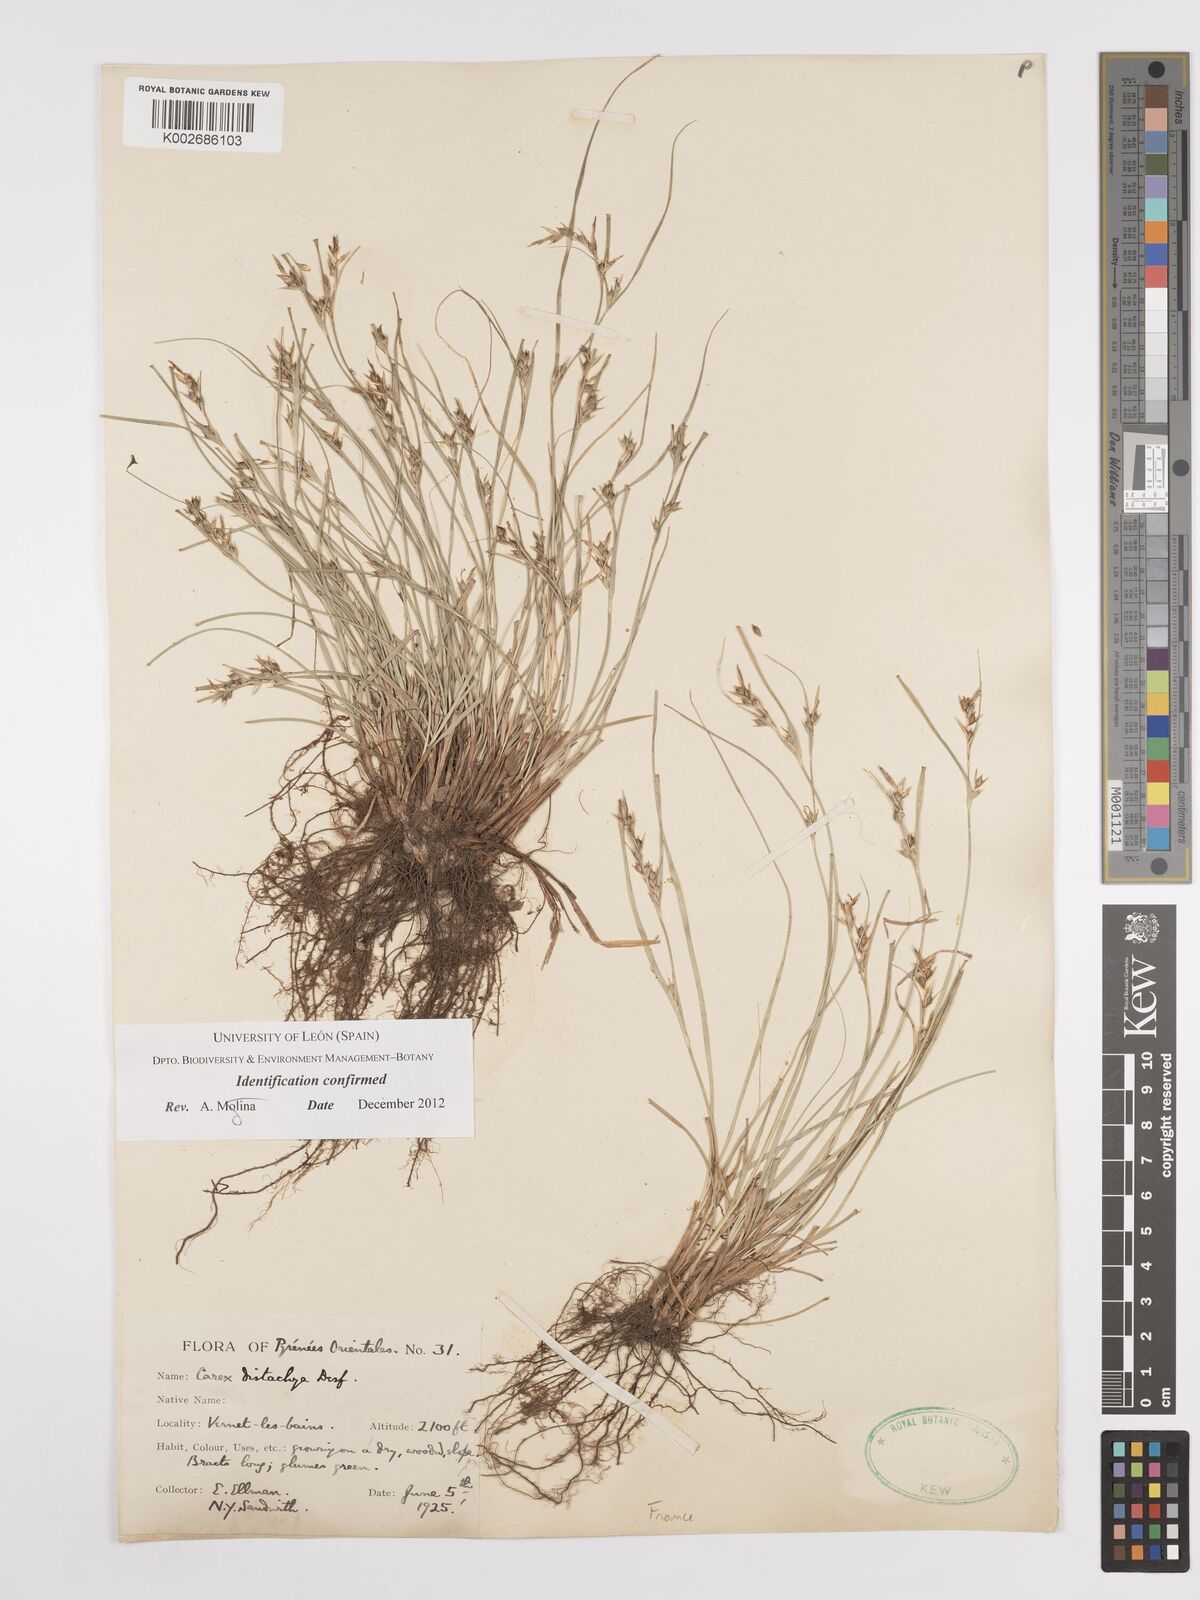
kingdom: Plantae
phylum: Tracheophyta
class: Liliopsida
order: Poales
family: Cyperaceae
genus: Carex
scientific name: Carex distachya
